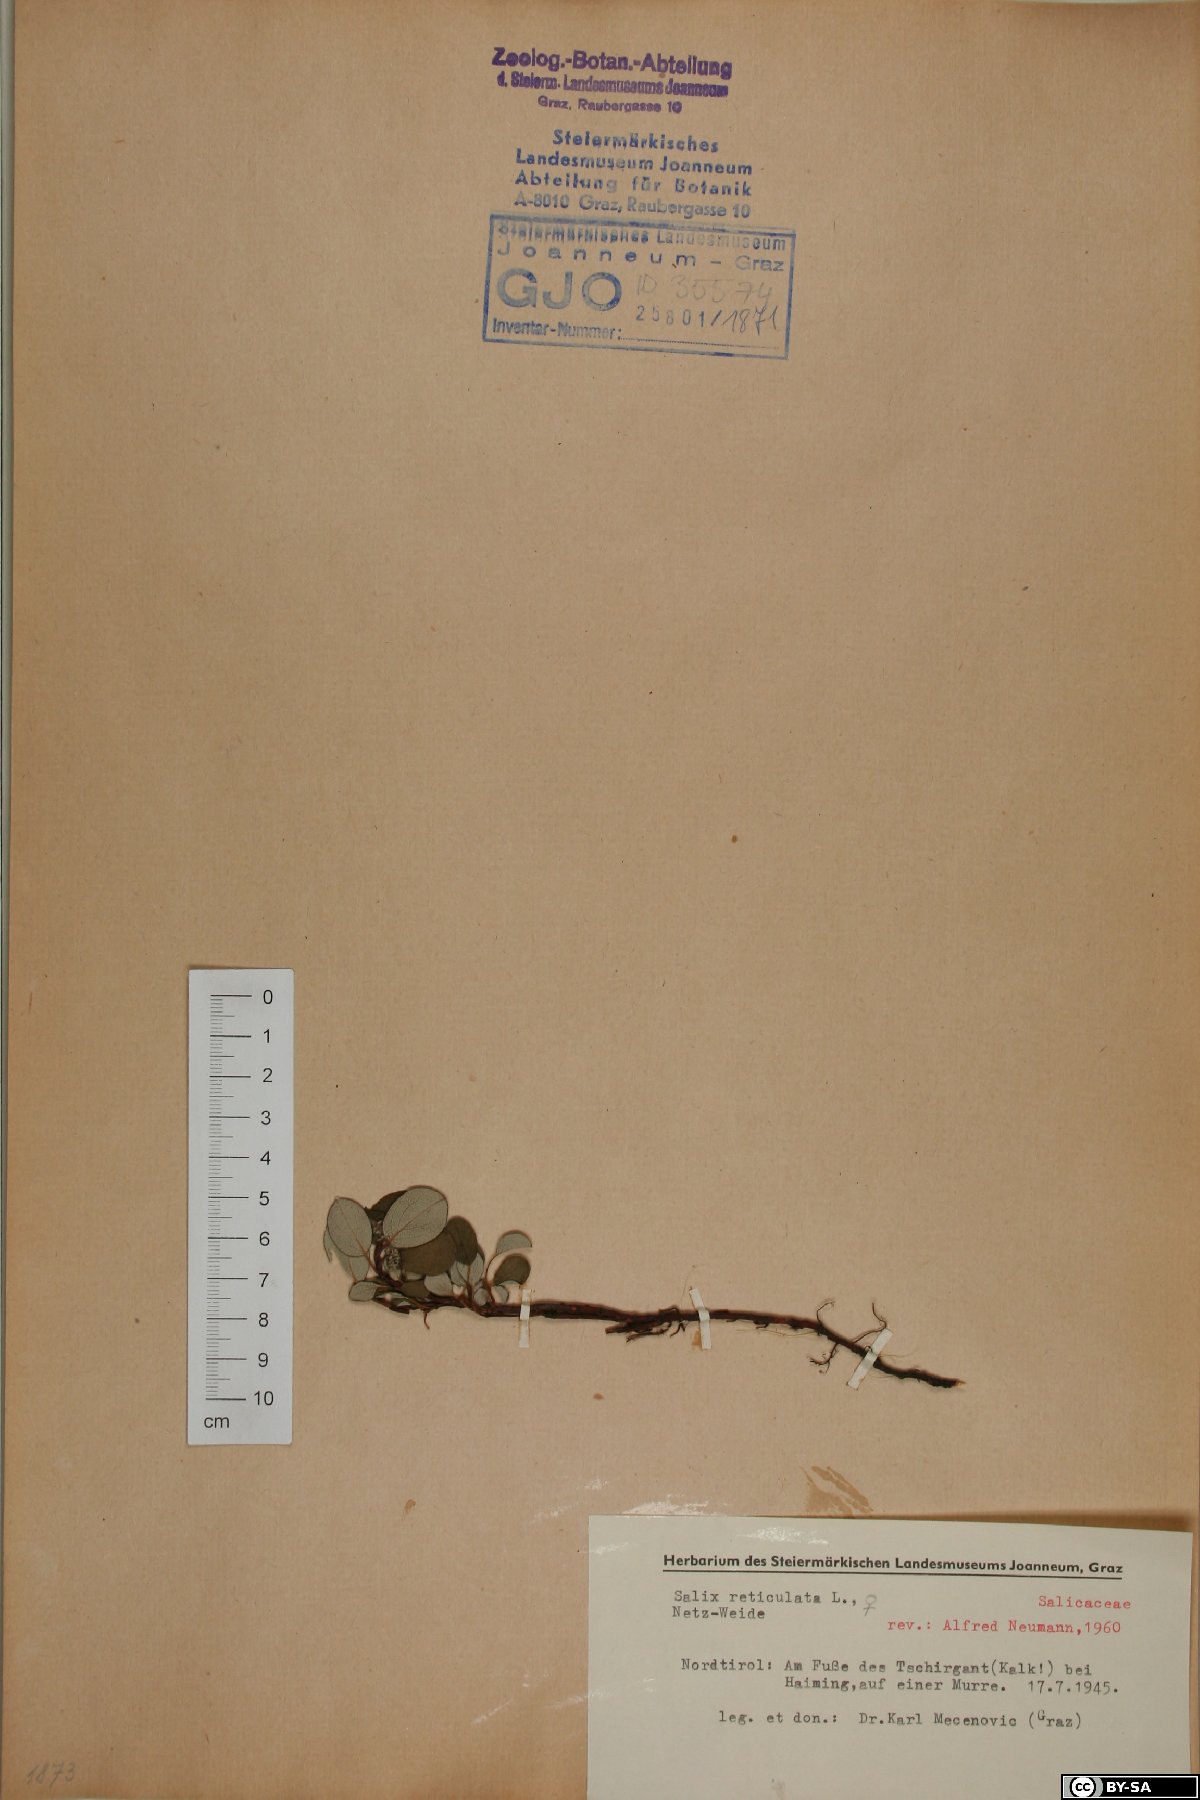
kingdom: Plantae
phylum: Tracheophyta
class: Magnoliopsida
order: Malpighiales
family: Salicaceae
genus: Salix
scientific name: Salix reticulata
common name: Net-leaved willow
